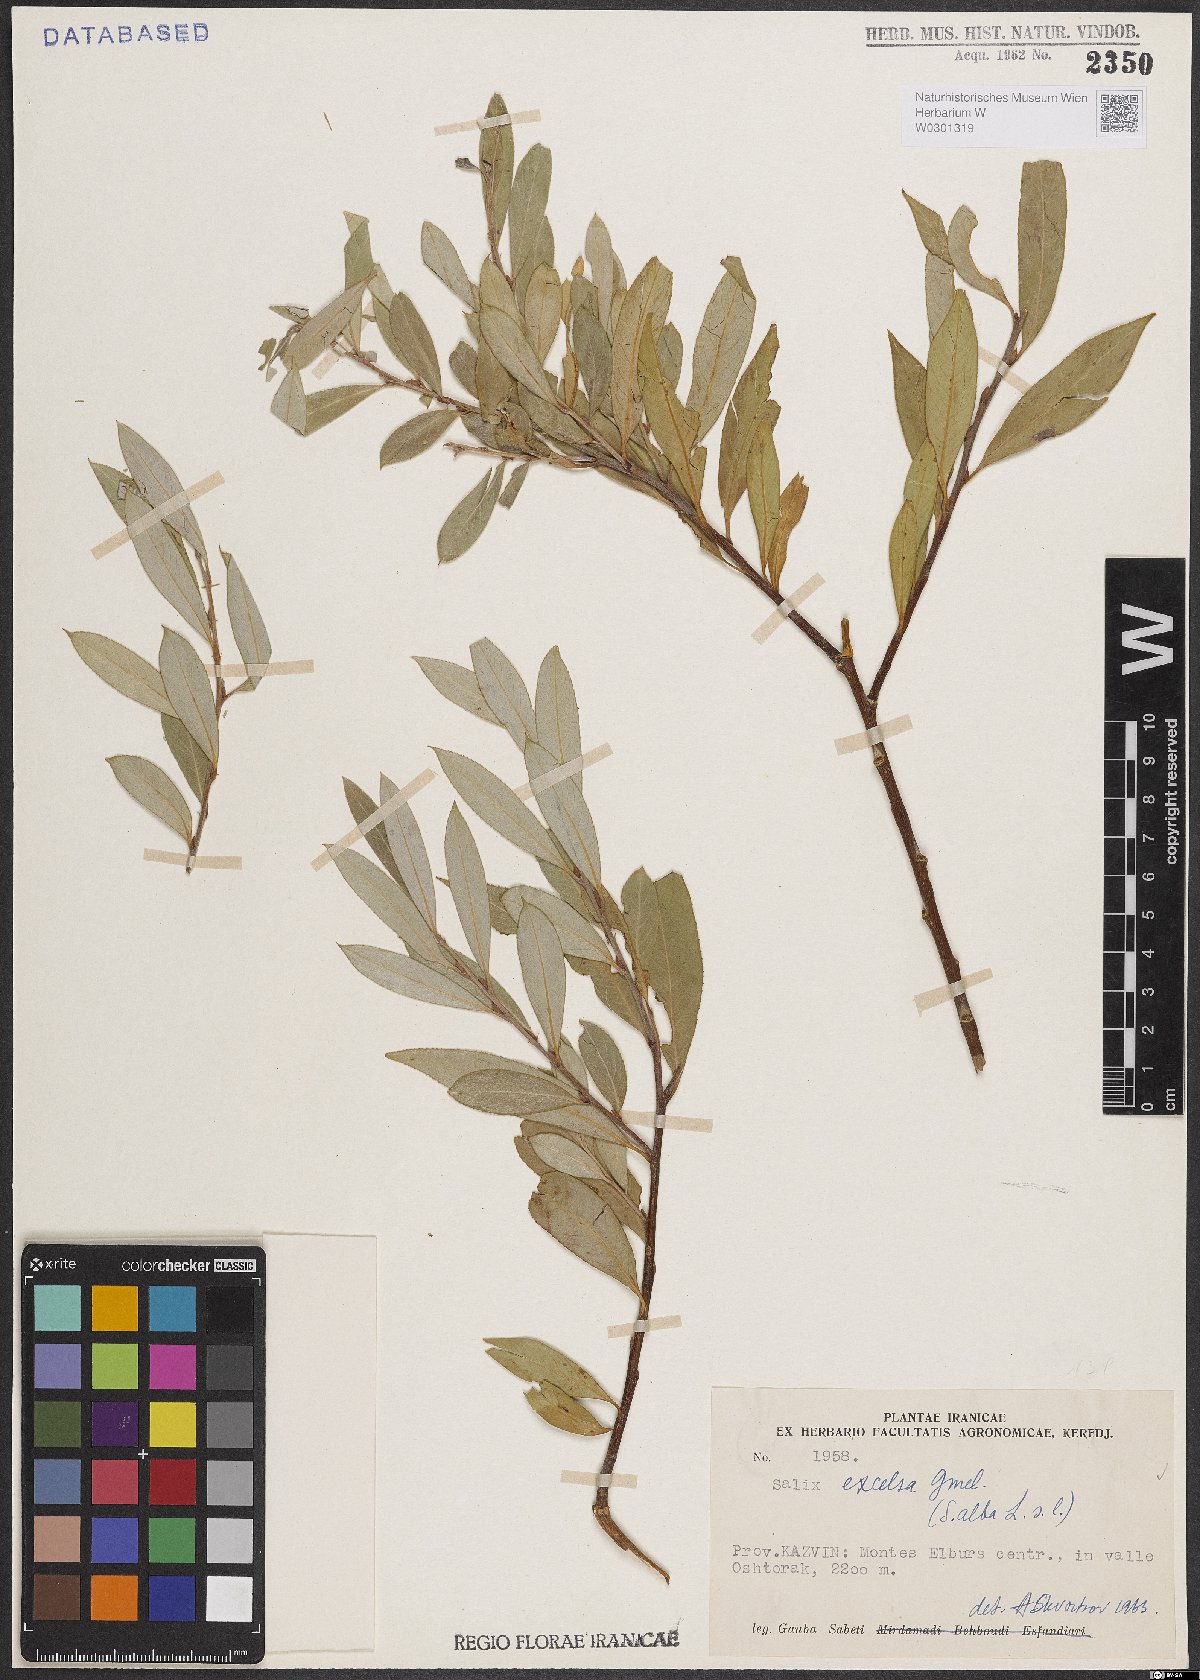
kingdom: Plantae
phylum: Tracheophyta
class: Magnoliopsida
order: Malpighiales
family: Salicaceae
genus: Salix
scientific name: Salix excelsa
